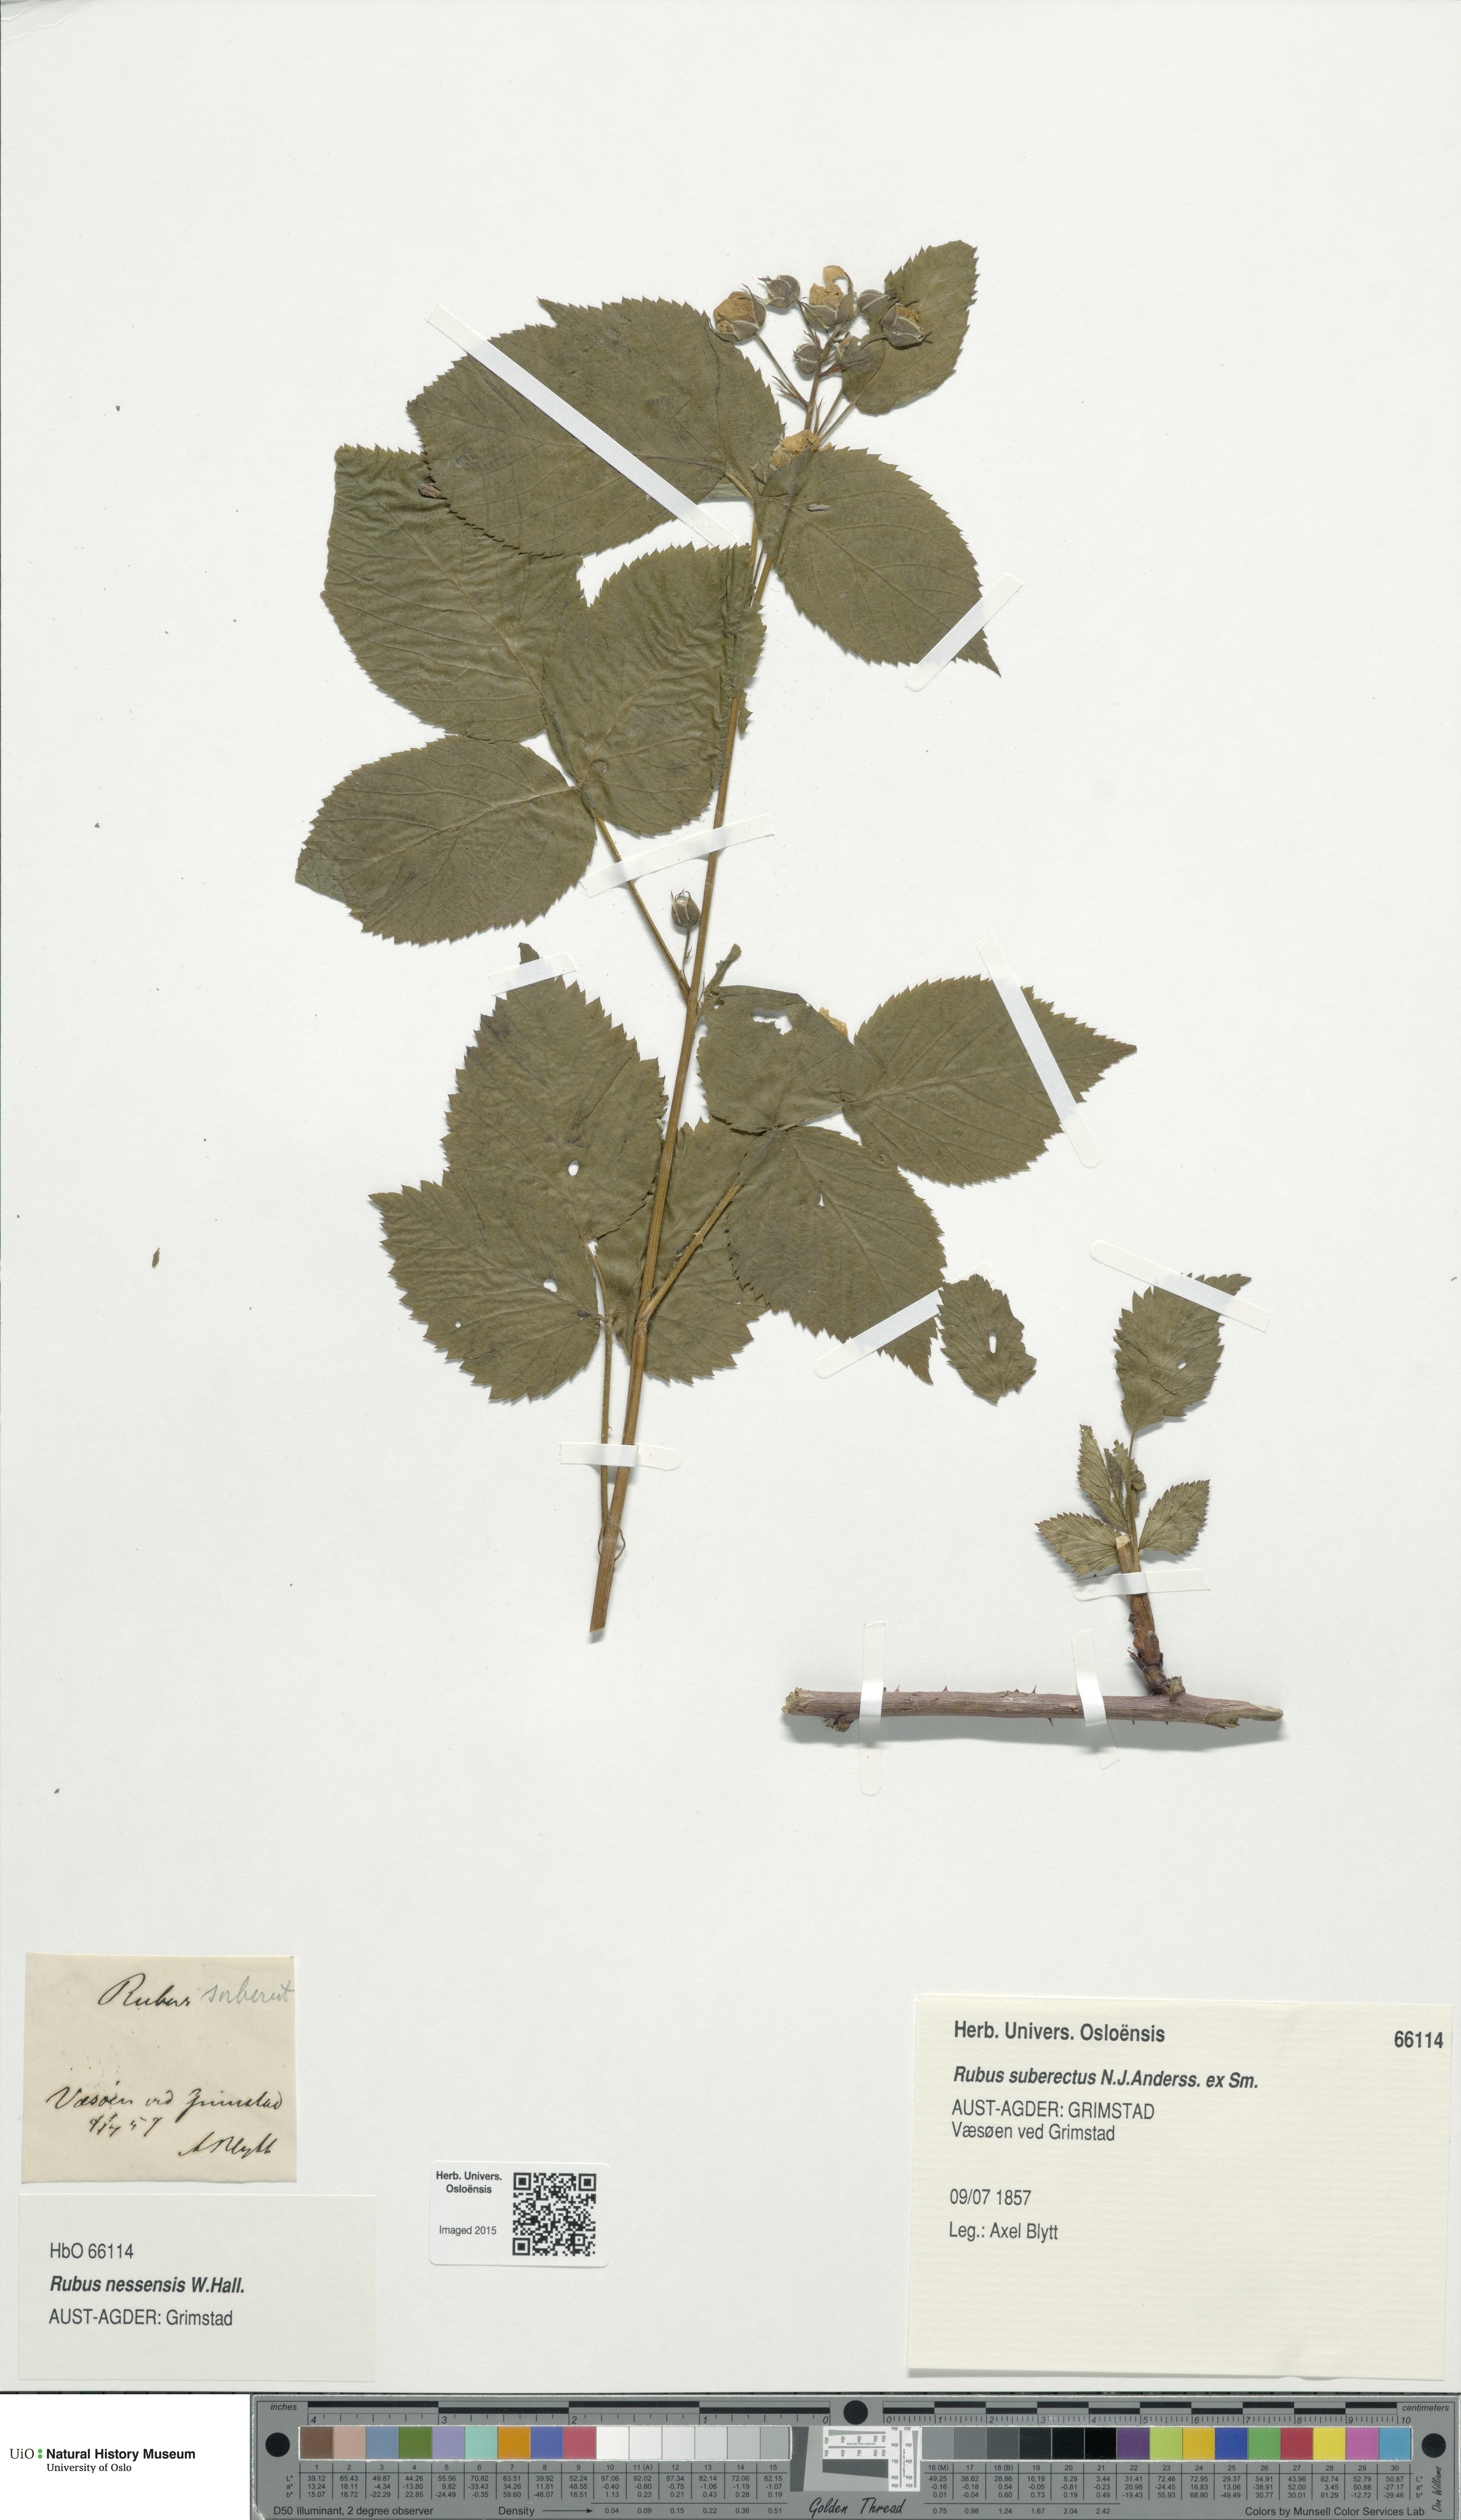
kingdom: Plantae
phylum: Tracheophyta
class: Magnoliopsida
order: Rosales
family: Rosaceae
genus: Rubus
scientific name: Rubus polonicus
